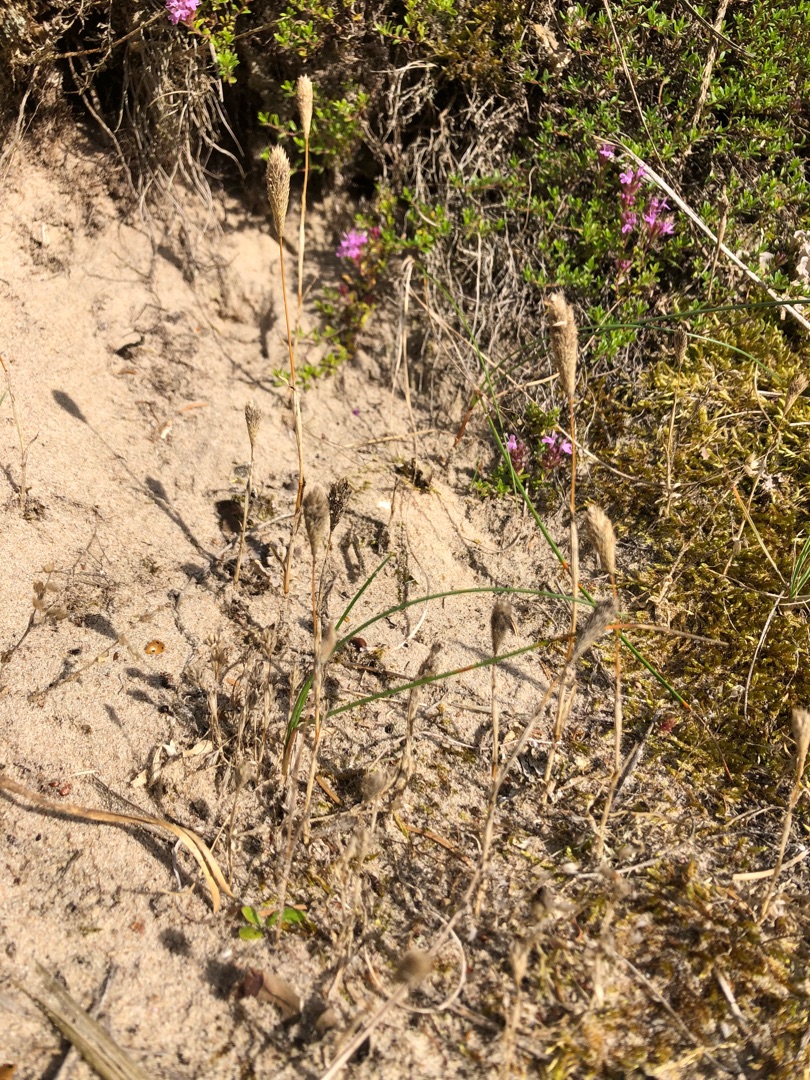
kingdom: Plantae
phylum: Tracheophyta
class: Liliopsida
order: Poales
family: Poaceae
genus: Phleum
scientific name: Phleum arenarium
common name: Sand-rottehale
